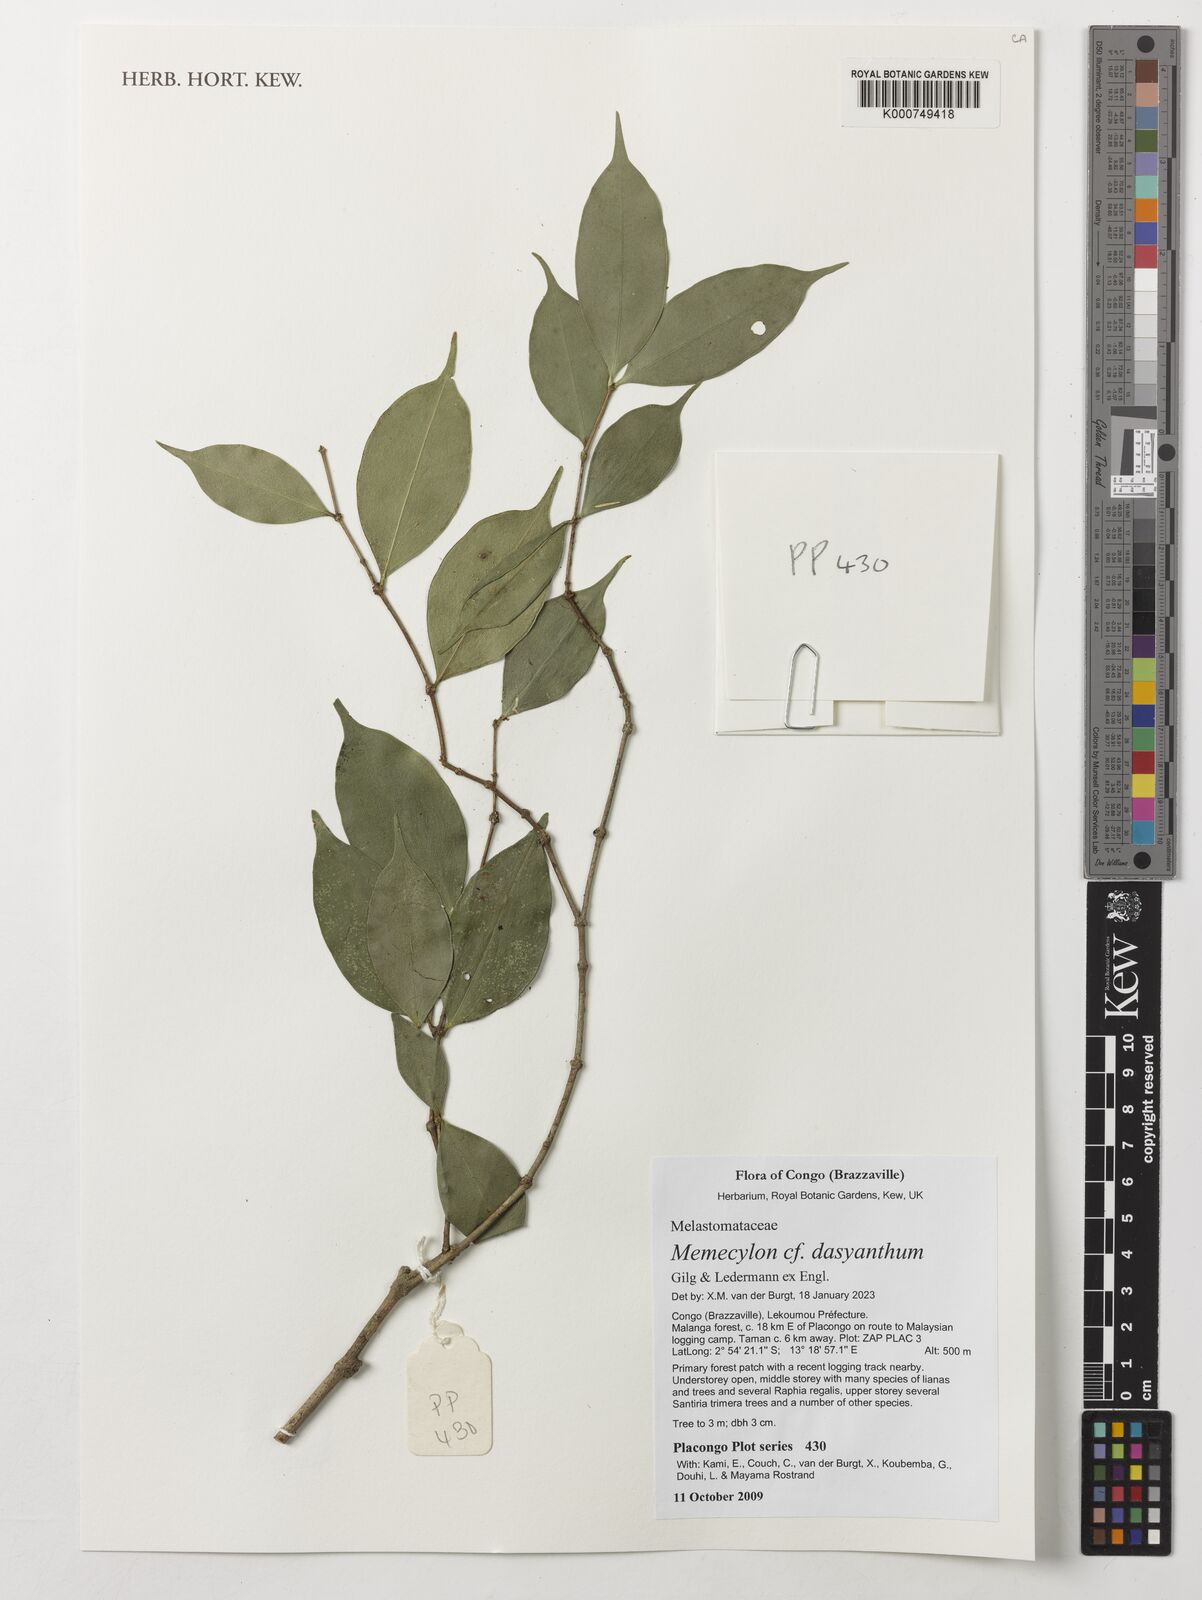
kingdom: Plantae
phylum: Tracheophyta
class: Magnoliopsida
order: Myrtales
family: Melastomataceae
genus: Memecylon
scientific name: Memecylon dasyanthum
